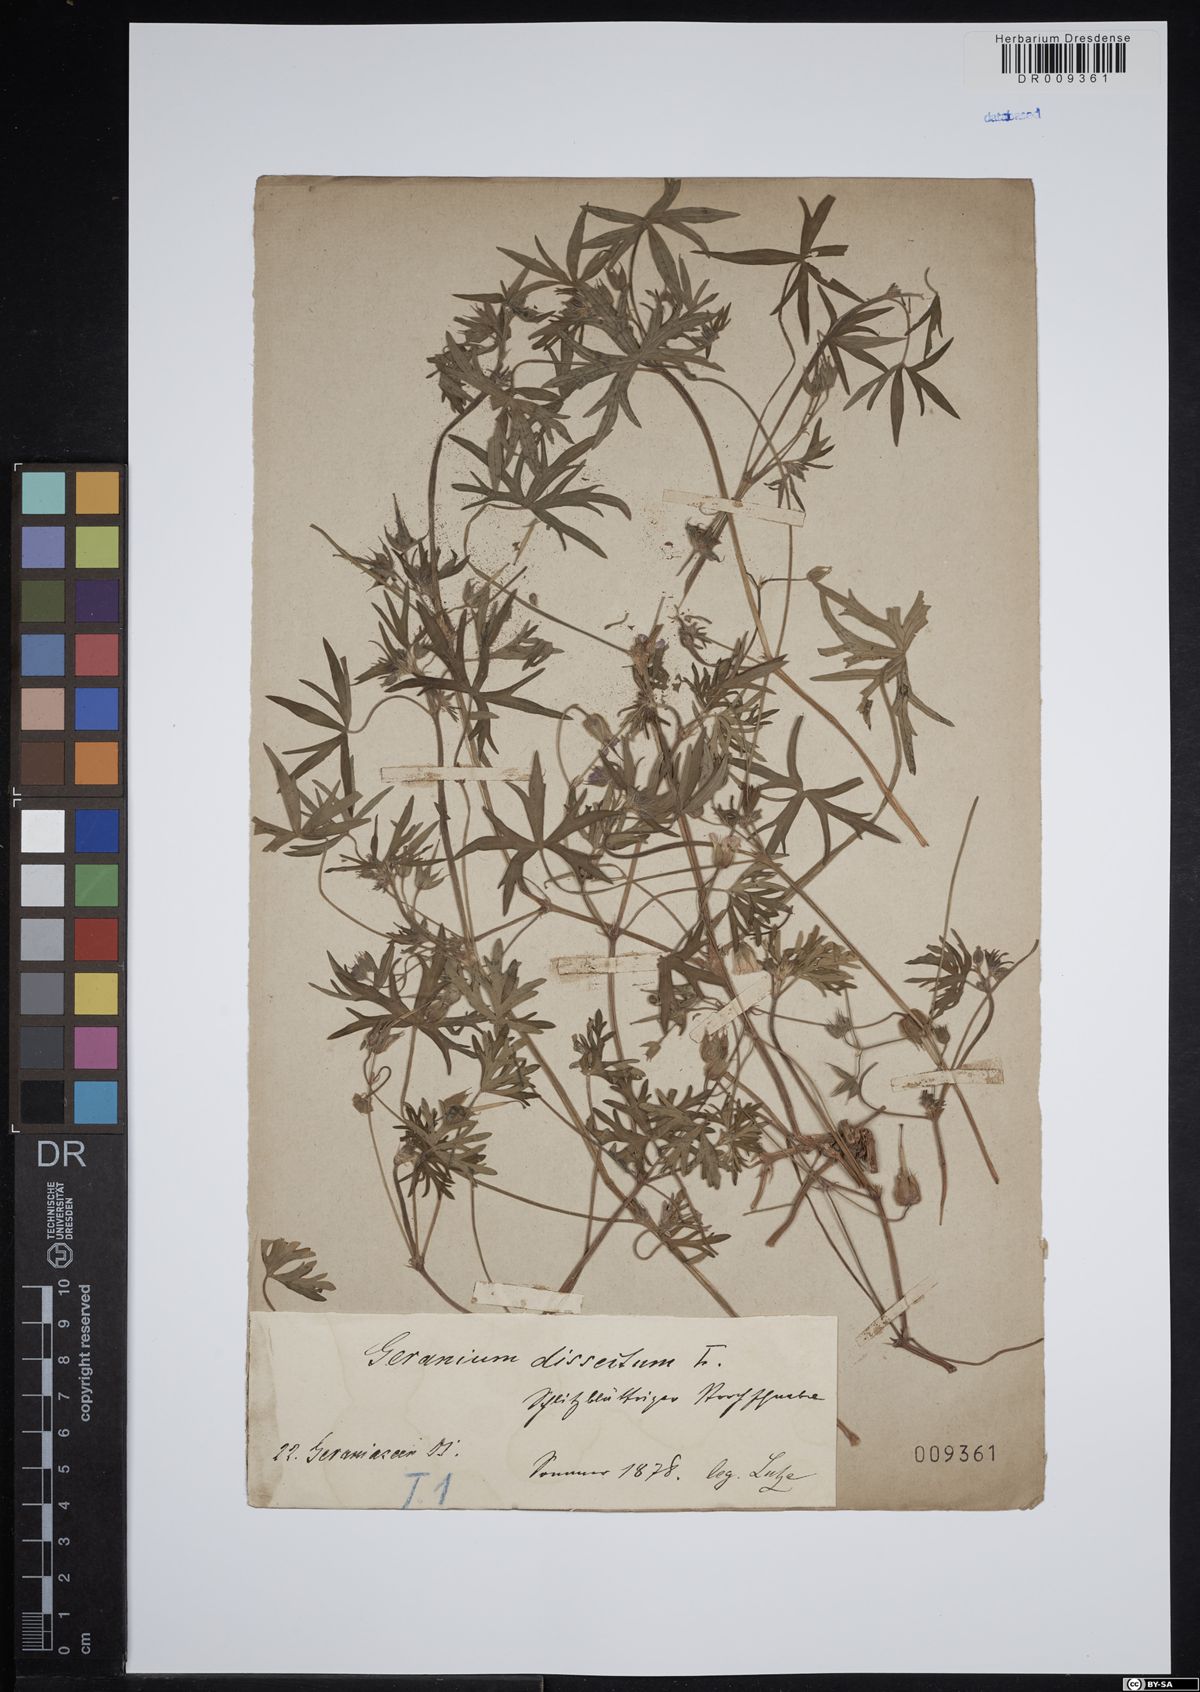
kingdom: Plantae
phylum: Tracheophyta
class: Magnoliopsida
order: Geraniales
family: Geraniaceae
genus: Geranium
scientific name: Geranium dissectum
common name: Cut-leaved crane's-bill
